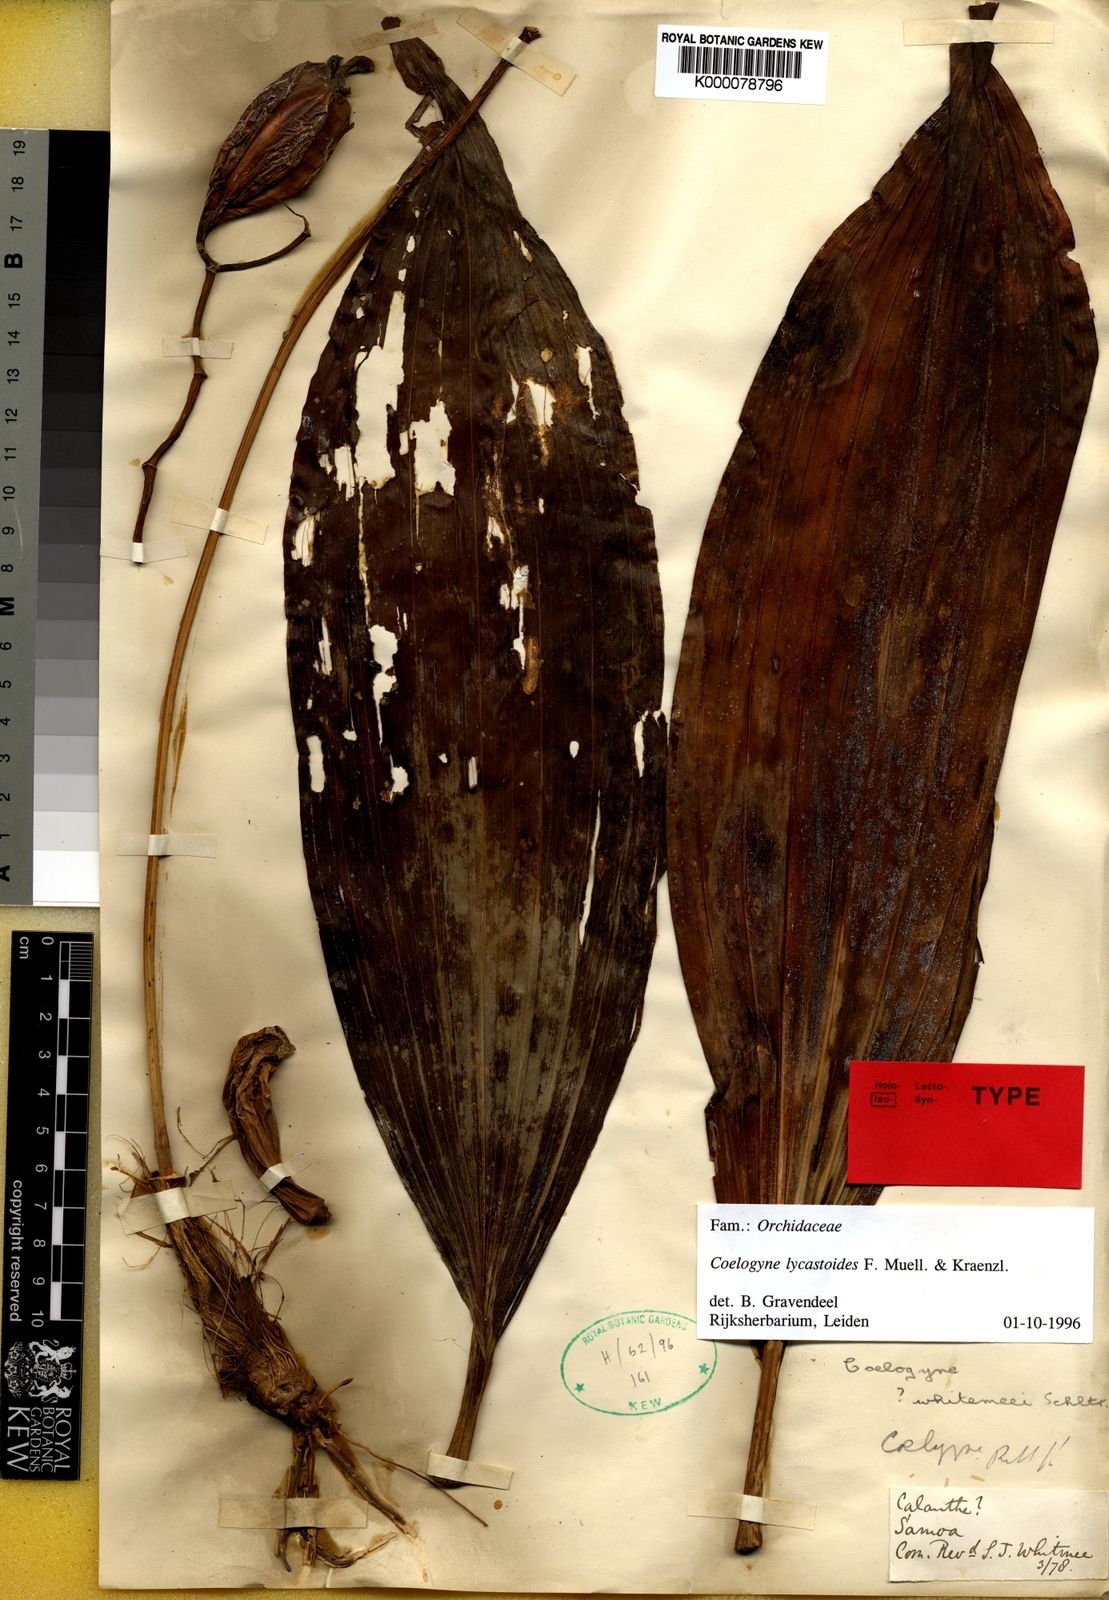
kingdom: Plantae
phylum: Tracheophyta
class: Liliopsida
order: Asparagales
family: Orchidaceae
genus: Coelogyne
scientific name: Coelogyne lycastoides
